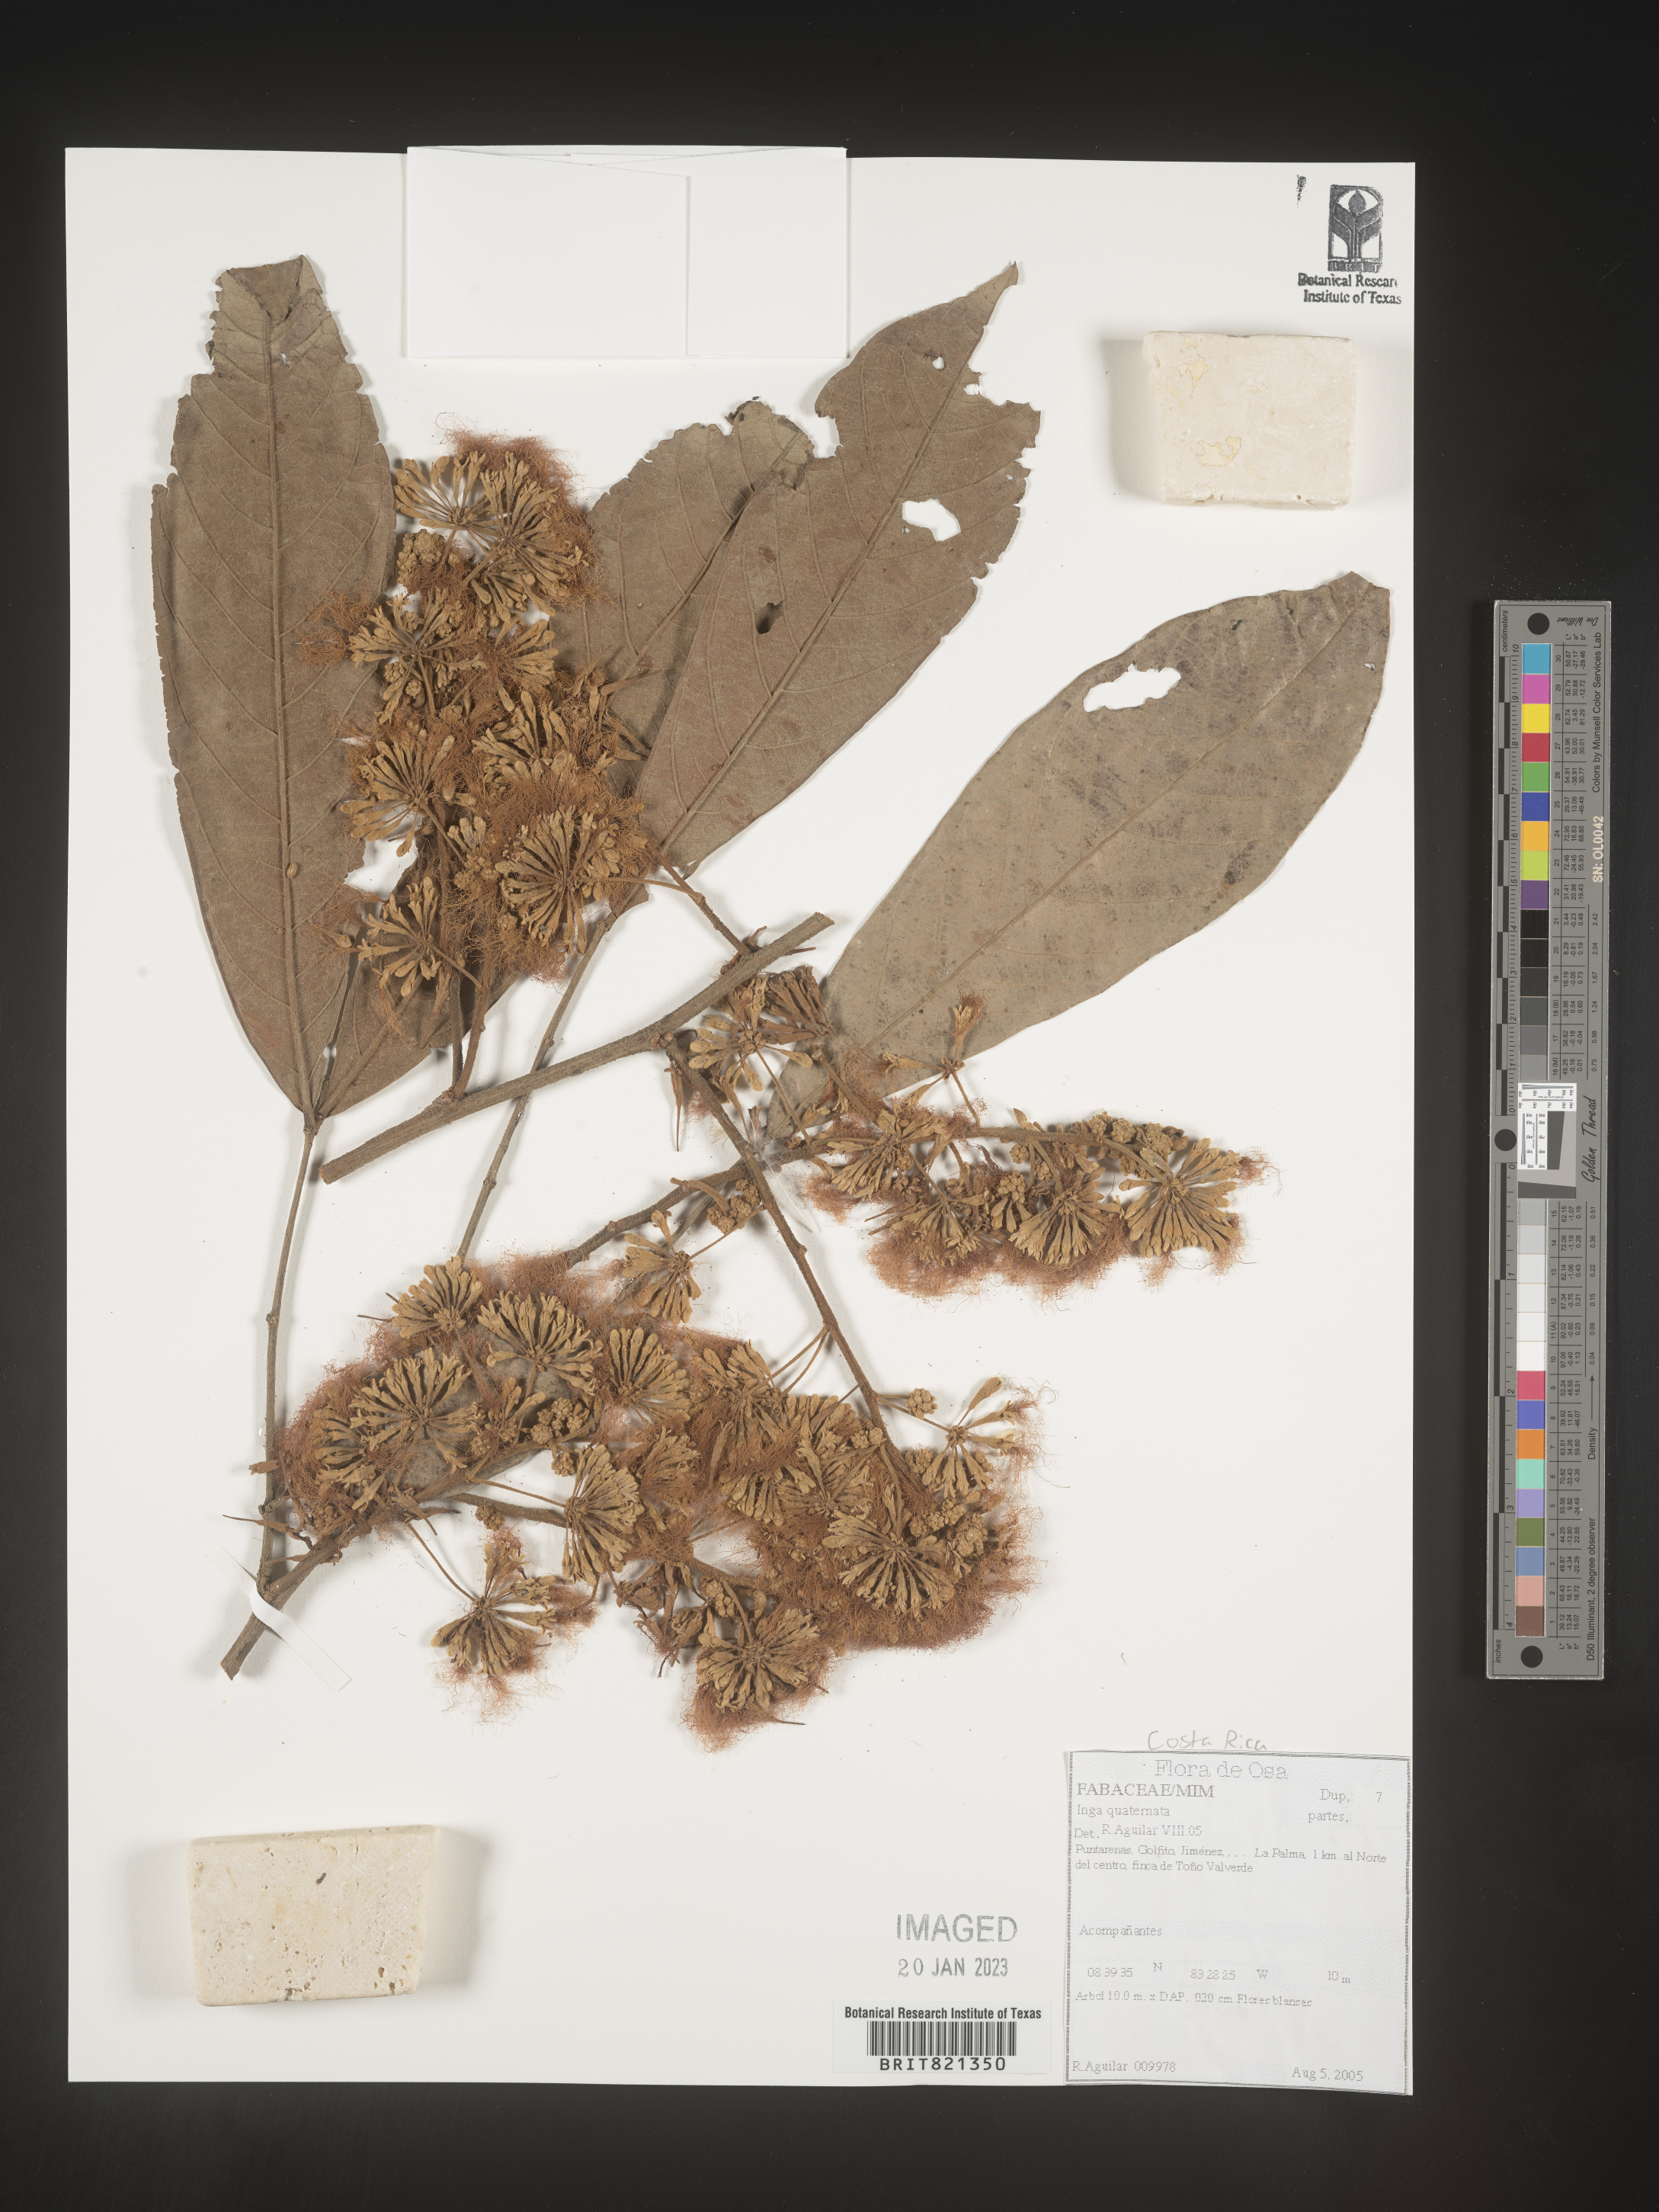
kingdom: Plantae
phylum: Tracheophyta
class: Magnoliopsida
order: Fabales
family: Fabaceae
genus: Inga
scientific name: Inga
